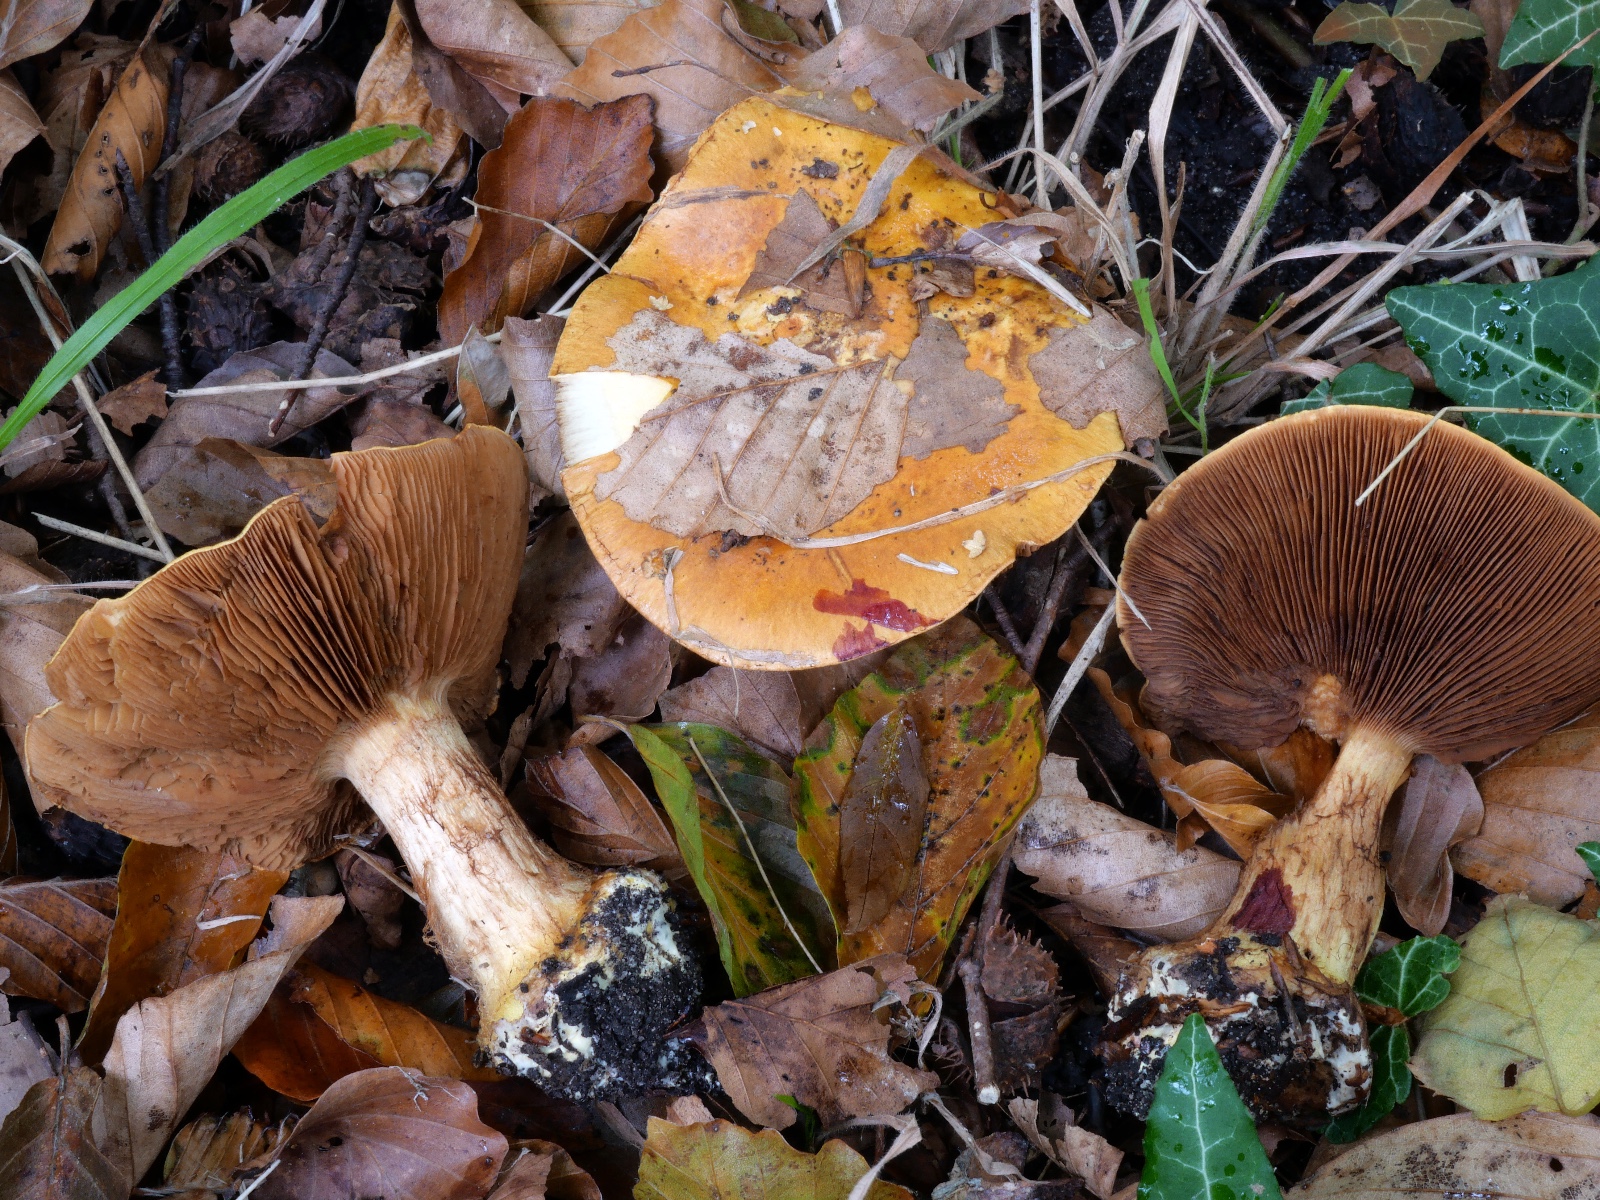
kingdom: Fungi
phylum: Basidiomycota
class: Agaricomycetes
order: Agaricales
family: Cortinariaceae
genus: Calonarius
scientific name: Calonarius alcalinophilus
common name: gyldenbrun slørhat
